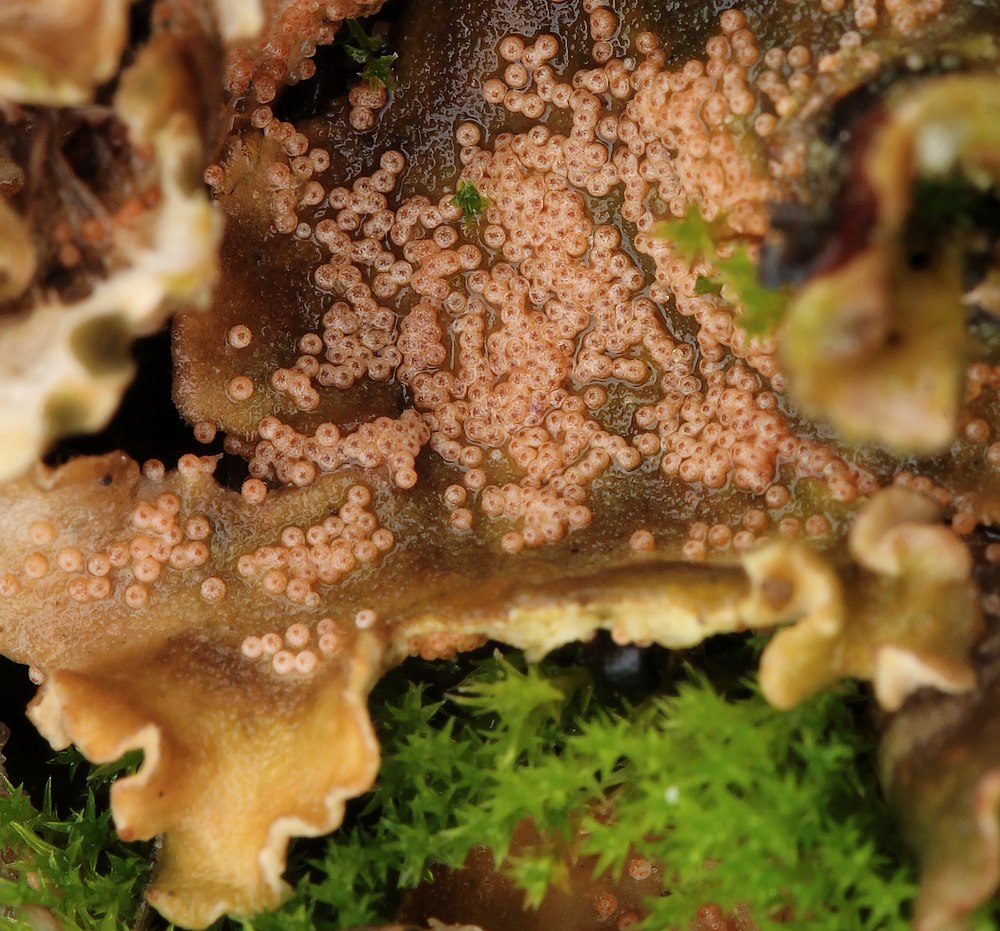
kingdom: Fungi
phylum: Ascomycota
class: Sordariomycetes
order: Hypocreales
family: Bionectriaceae
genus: Nectriopsis
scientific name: Nectriopsis lecanodes
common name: skjoldlav-gyldenkerne
